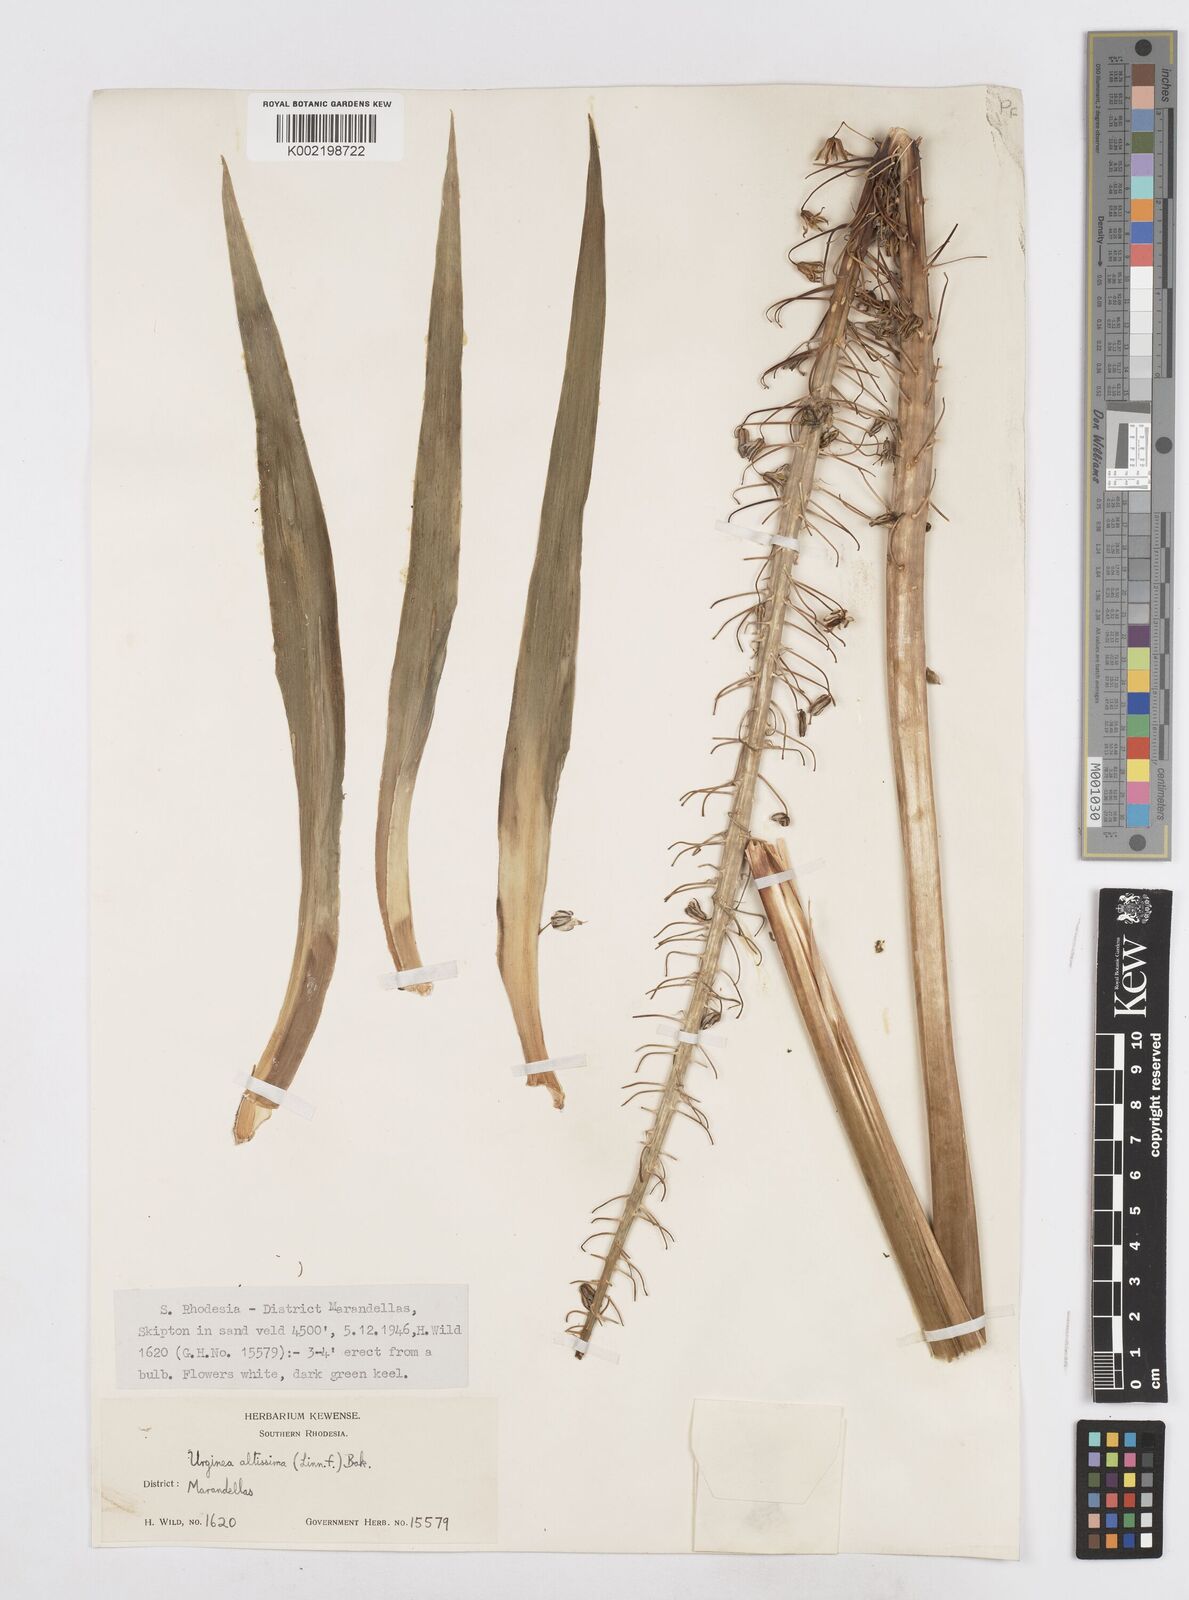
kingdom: Plantae
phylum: Tracheophyta
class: Liliopsida
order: Asparagales
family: Asparagaceae
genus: Drimia
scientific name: Drimia
